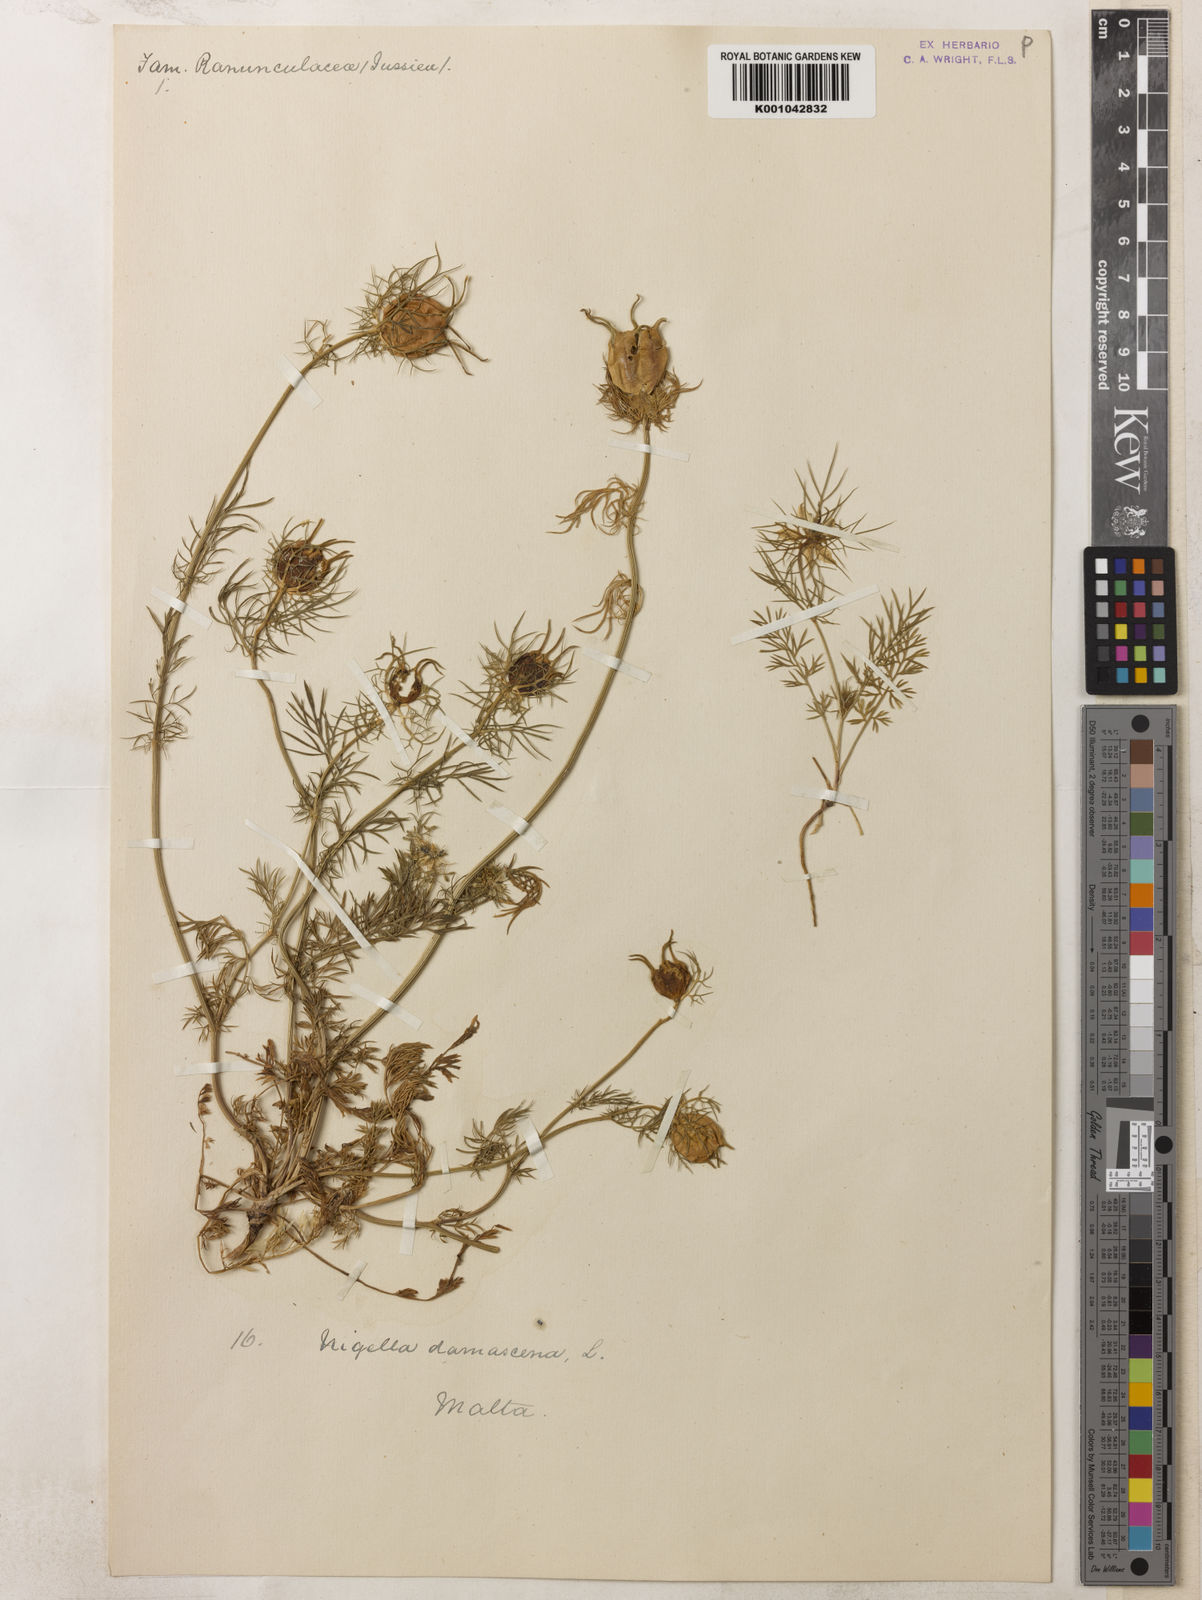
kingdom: Plantae
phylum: Tracheophyta
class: Magnoliopsida
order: Ranunculales
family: Ranunculaceae
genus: Nigella
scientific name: Nigella damascena
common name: Love-in-a-mist
